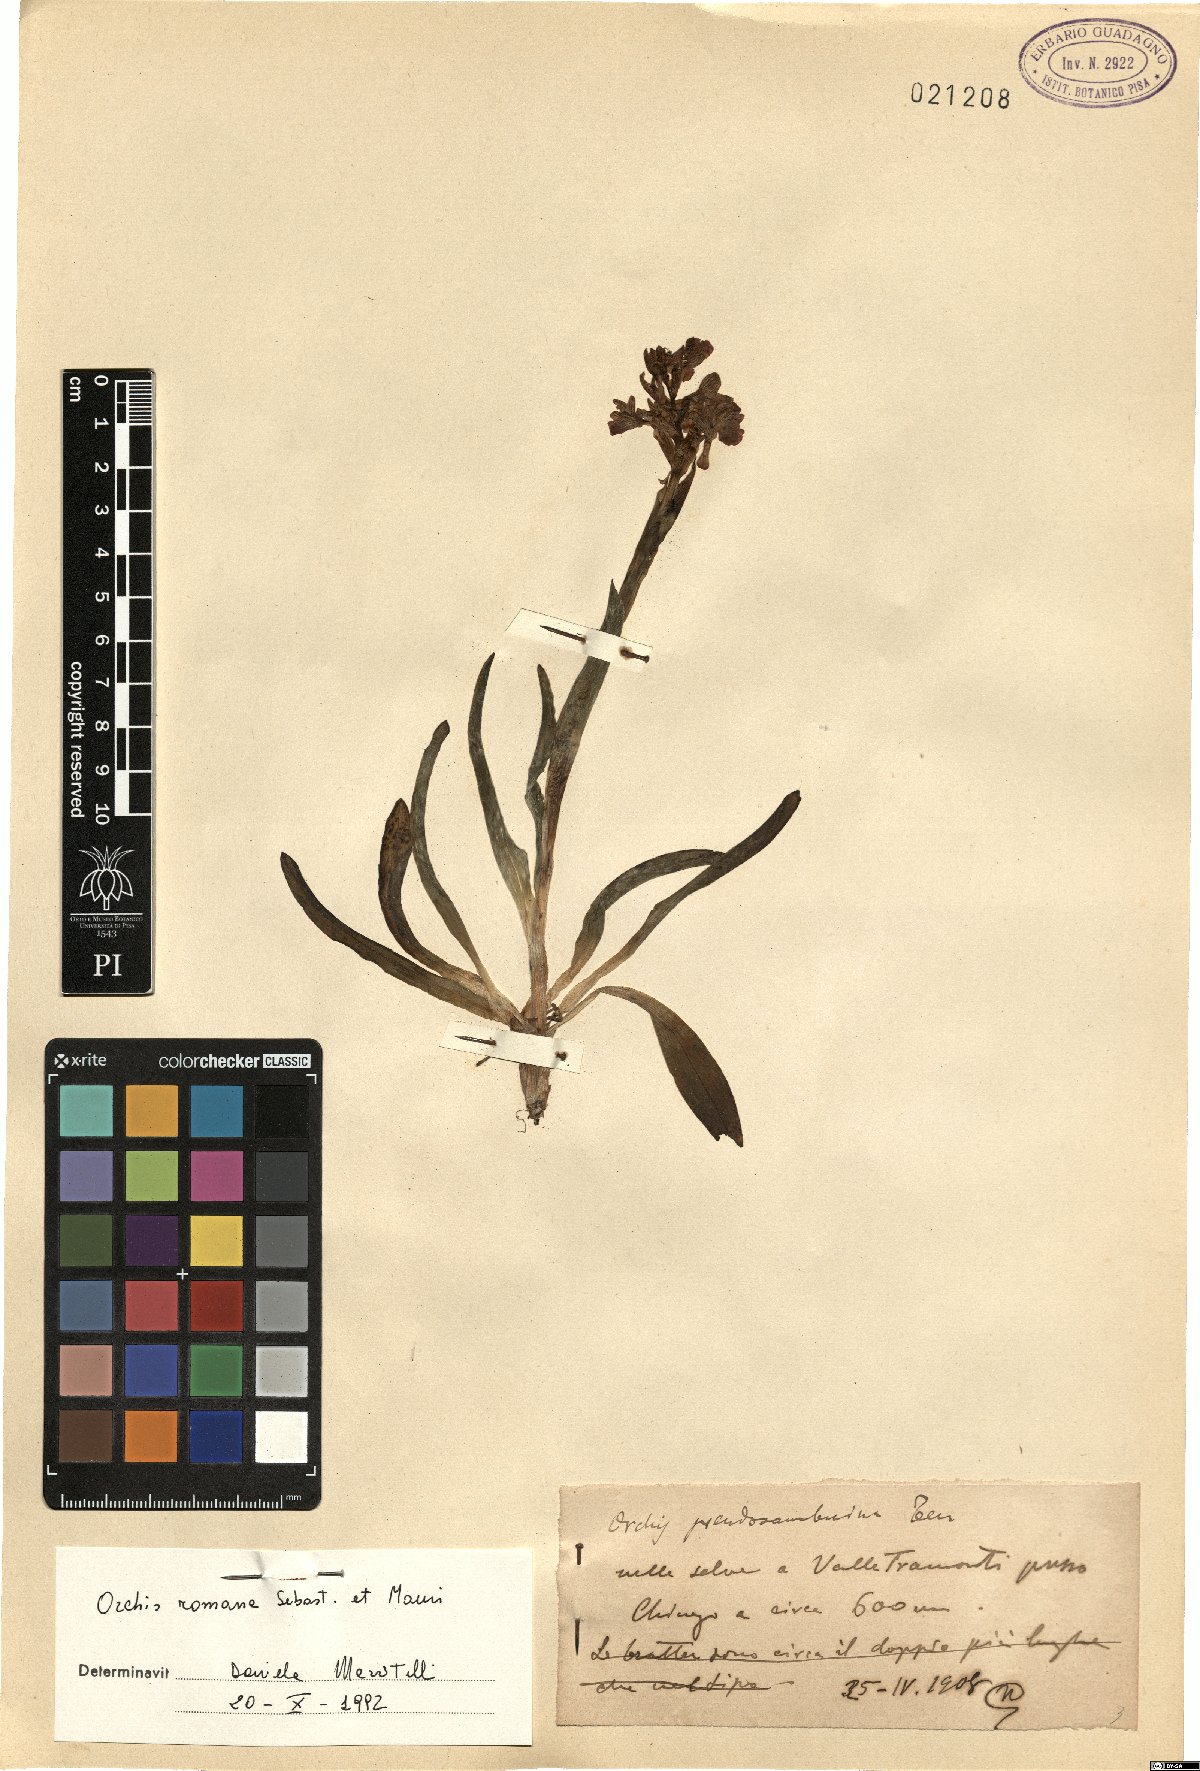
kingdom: Plantae
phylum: Tracheophyta
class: Liliopsida
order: Asparagales
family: Orchidaceae
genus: Dactylorhiza
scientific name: Dactylorhiza romana
